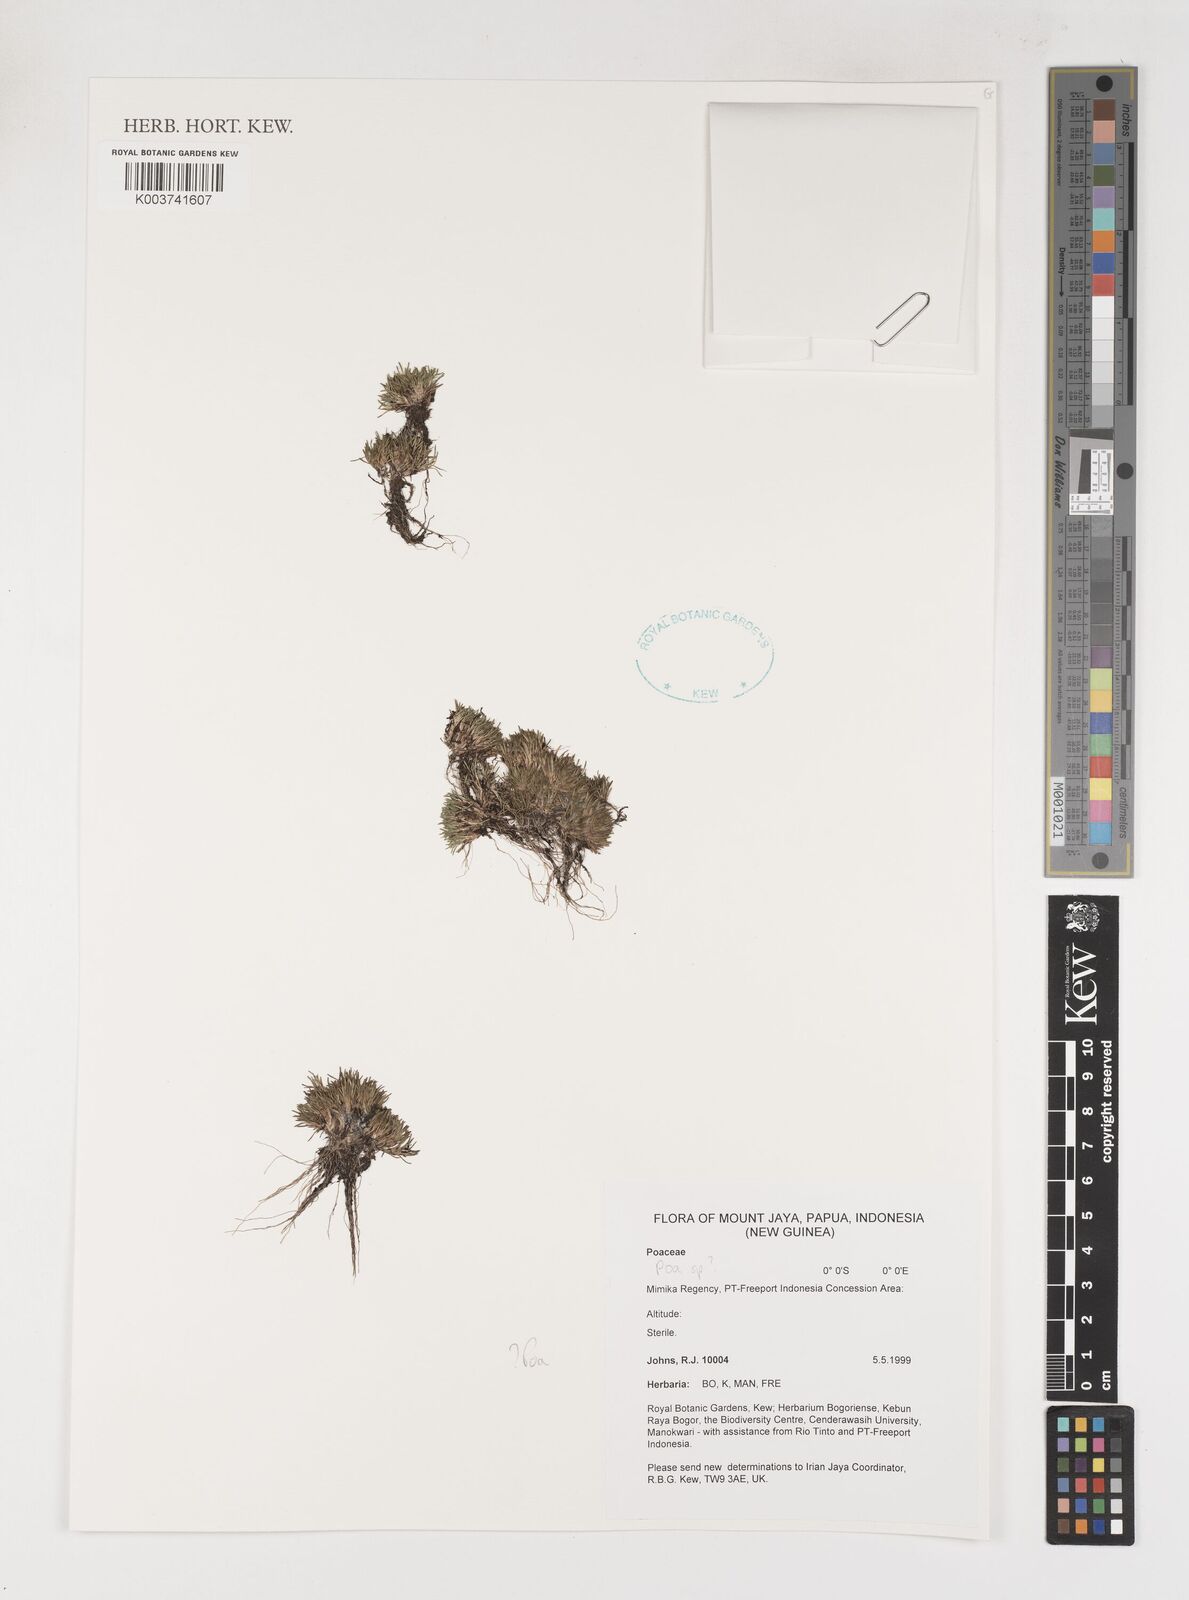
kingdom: Plantae
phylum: Tracheophyta
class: Liliopsida
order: Poales
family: Poaceae
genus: Poa
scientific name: Poa
